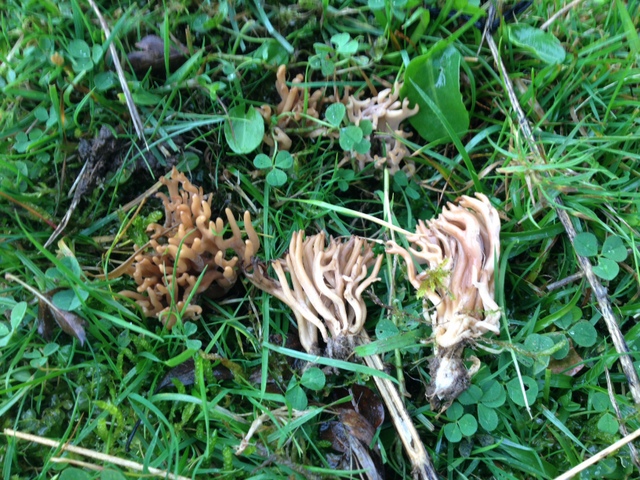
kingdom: Fungi
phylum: Basidiomycota
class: Agaricomycetes
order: Agaricales
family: Clavariaceae
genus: Clavulinopsis
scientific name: Clavulinopsis umbrinella
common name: gulgrå køllesvamp
